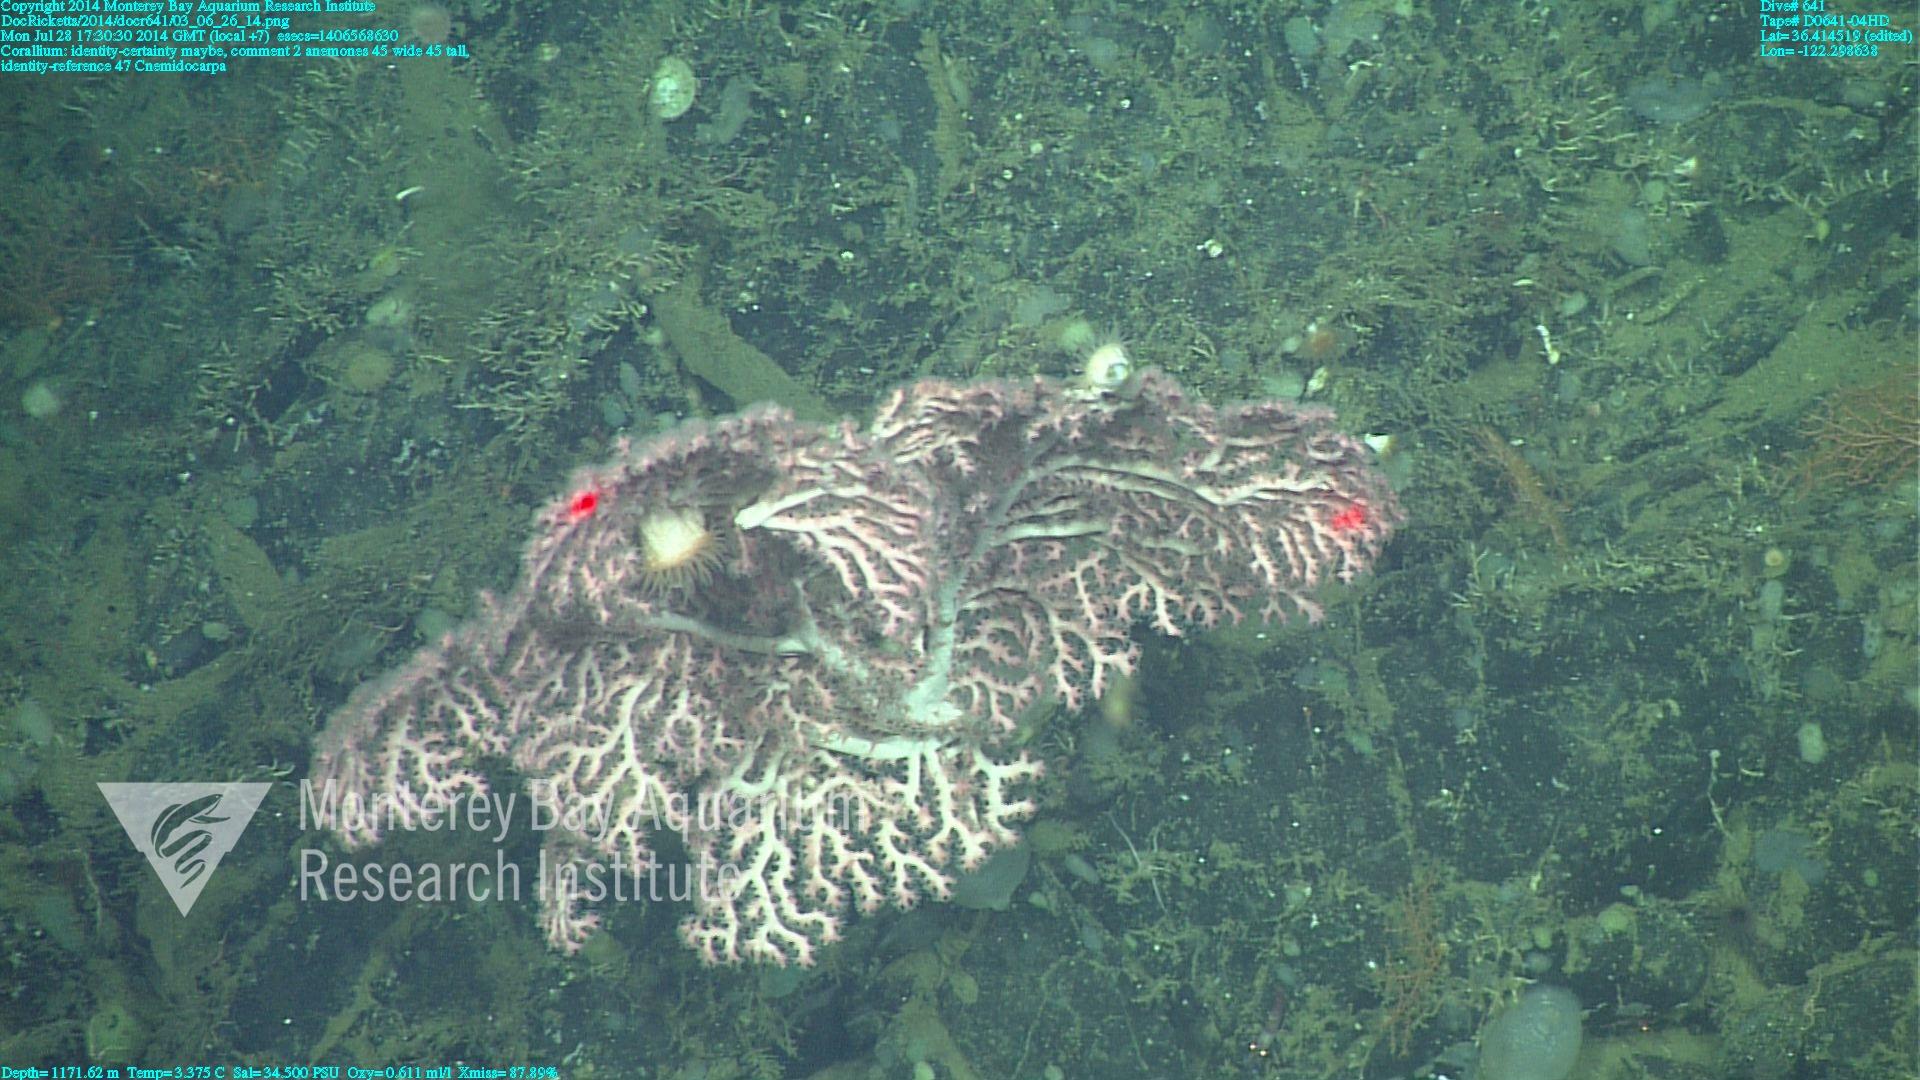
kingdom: Animalia
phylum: Cnidaria
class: Anthozoa
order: Scleralcyonacea
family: Coralliidae
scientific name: Coralliidae
